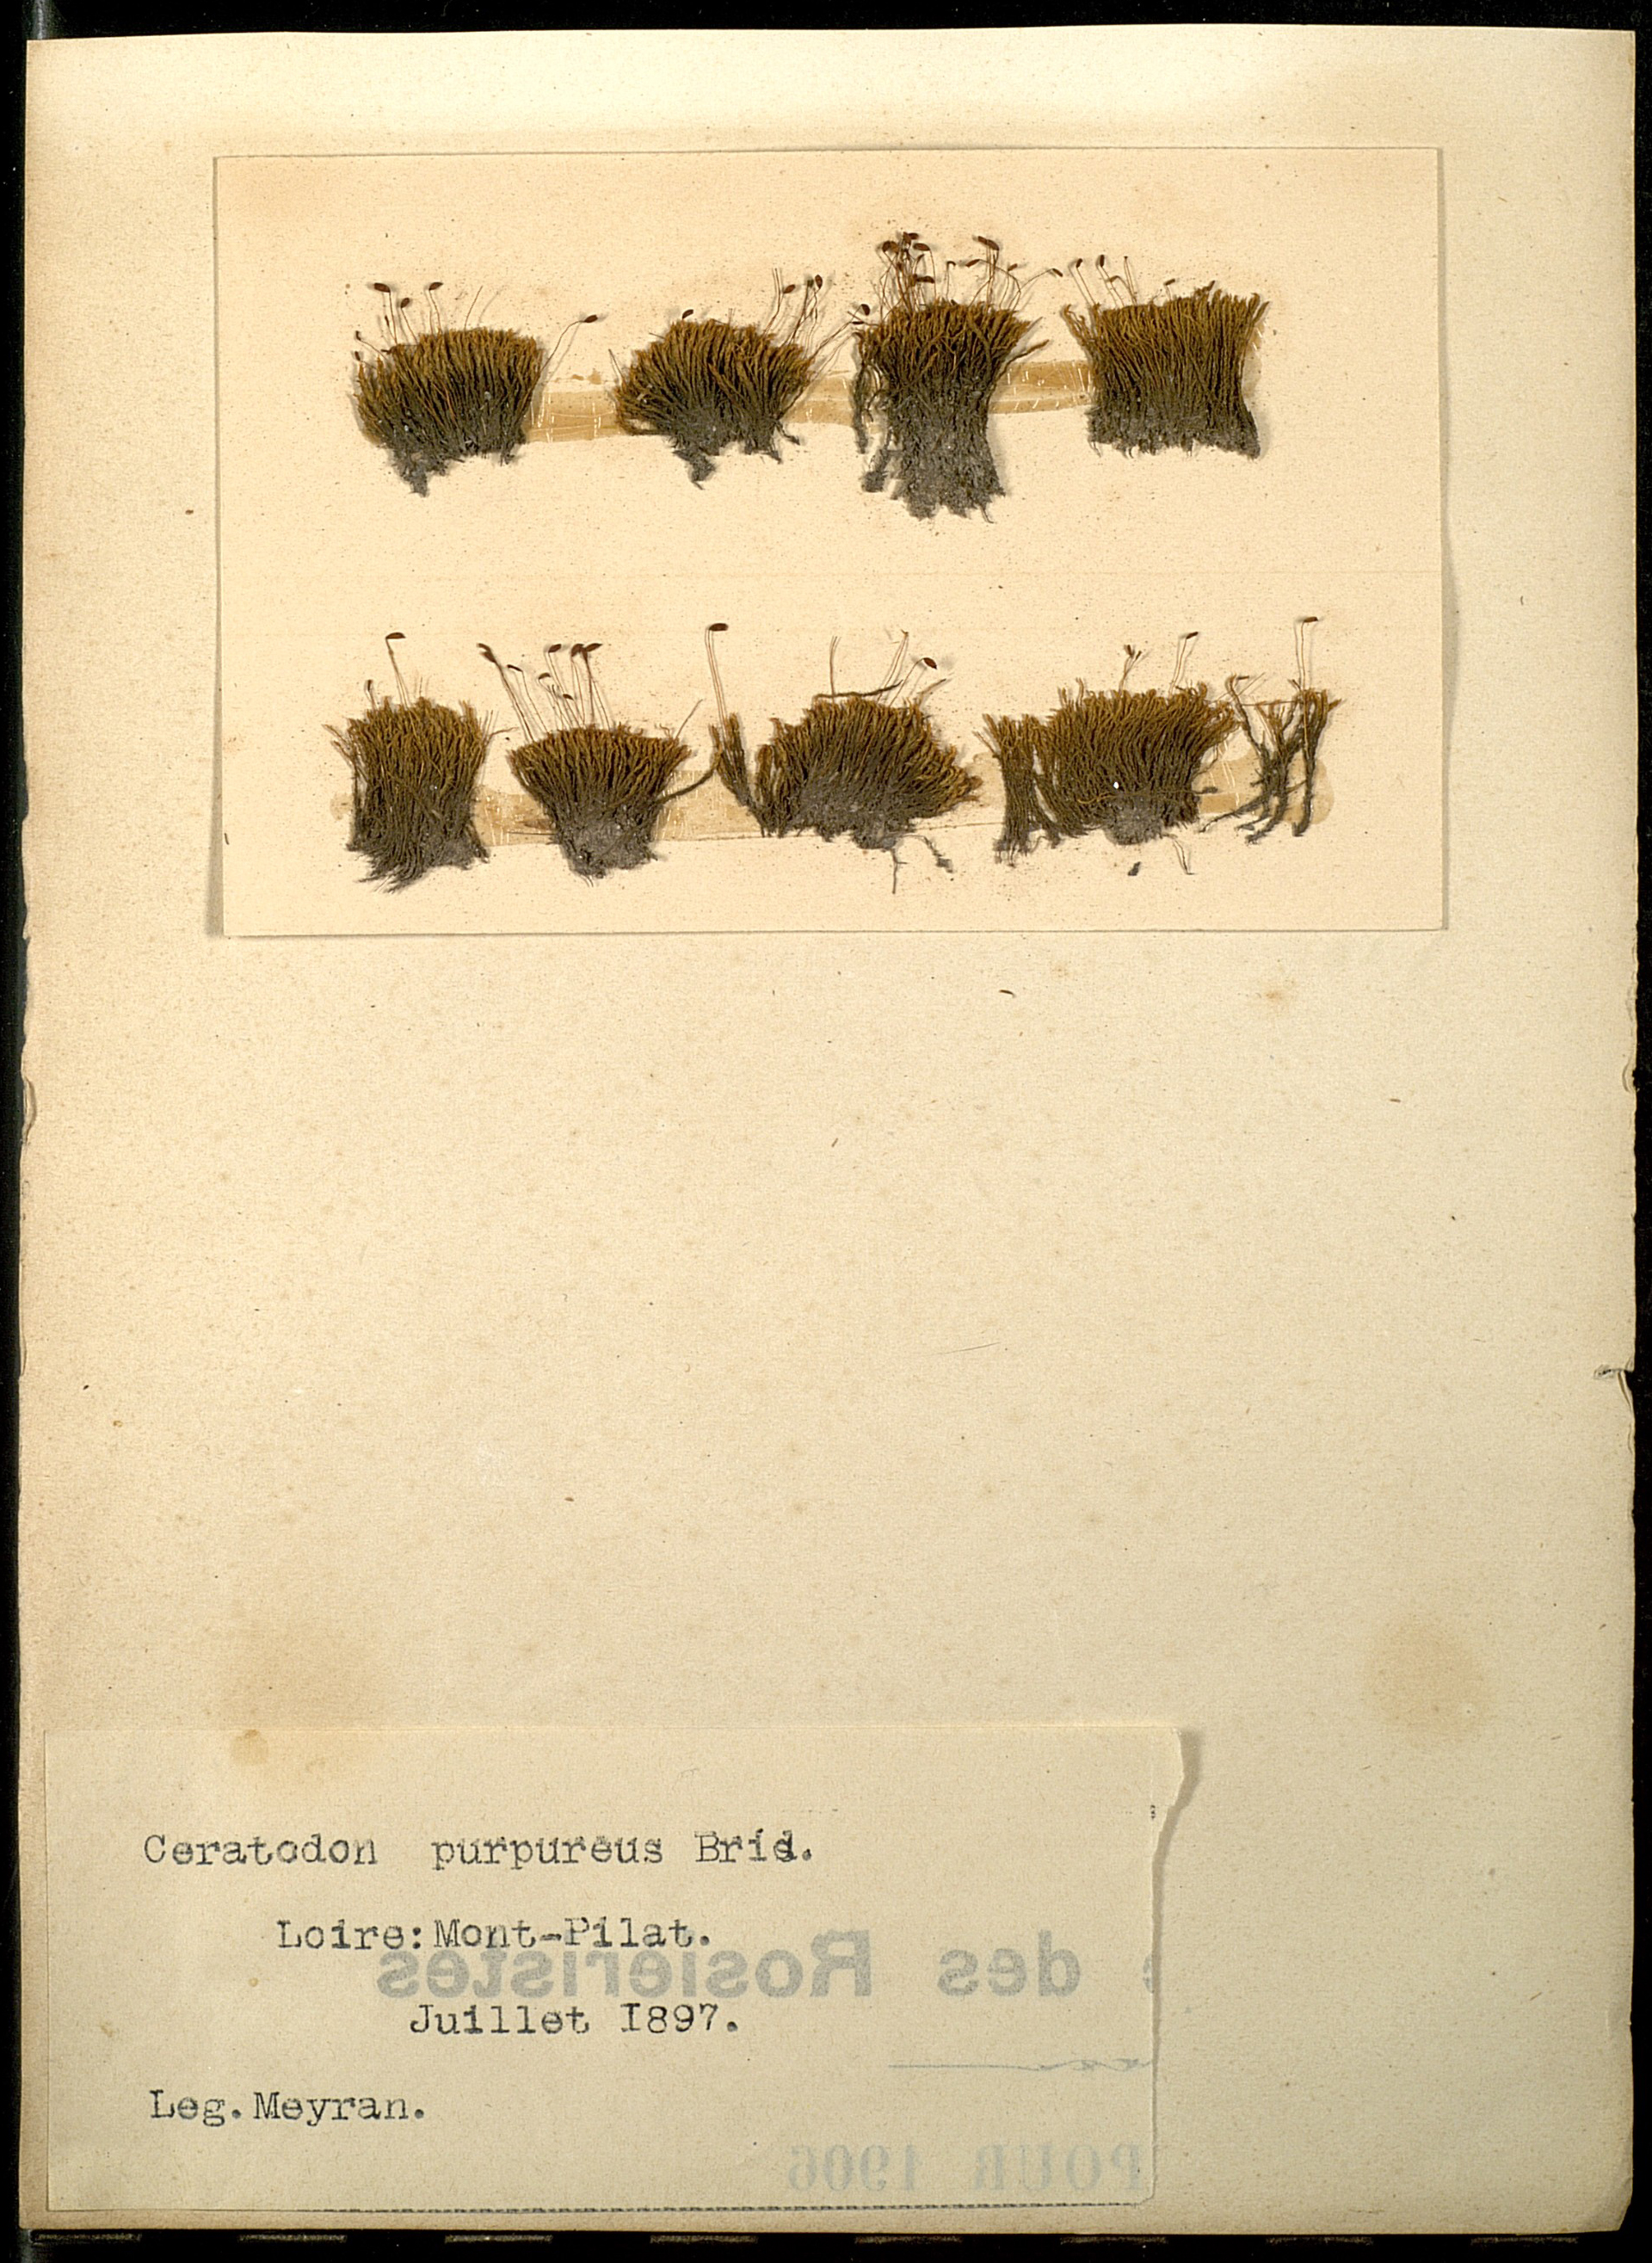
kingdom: Plantae
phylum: Bryophyta
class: Bryopsida
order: Dicranales
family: Ditrichaceae
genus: Ceratodon
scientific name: Ceratodon purpureus
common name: Redshank
